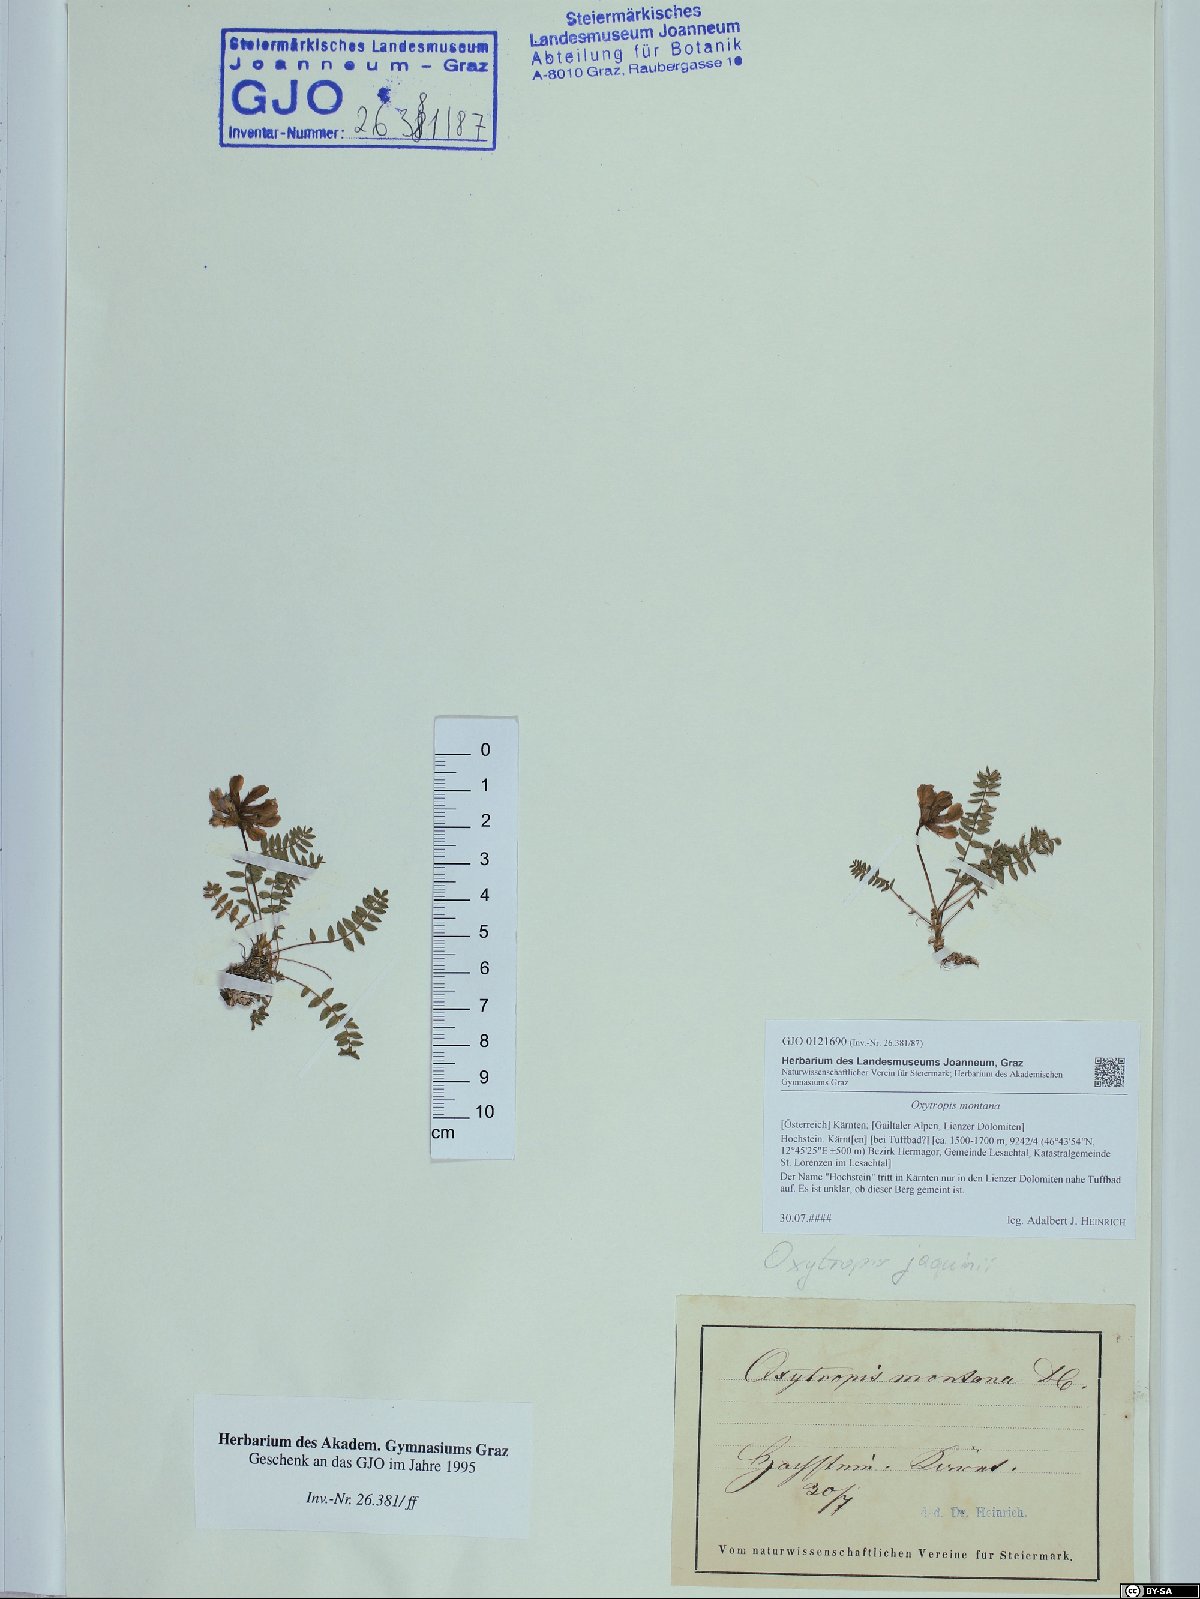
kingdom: Plantae
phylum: Tracheophyta
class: Magnoliopsida
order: Fabales
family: Fabaceae
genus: Oxytropis
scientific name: Oxytropis montana
